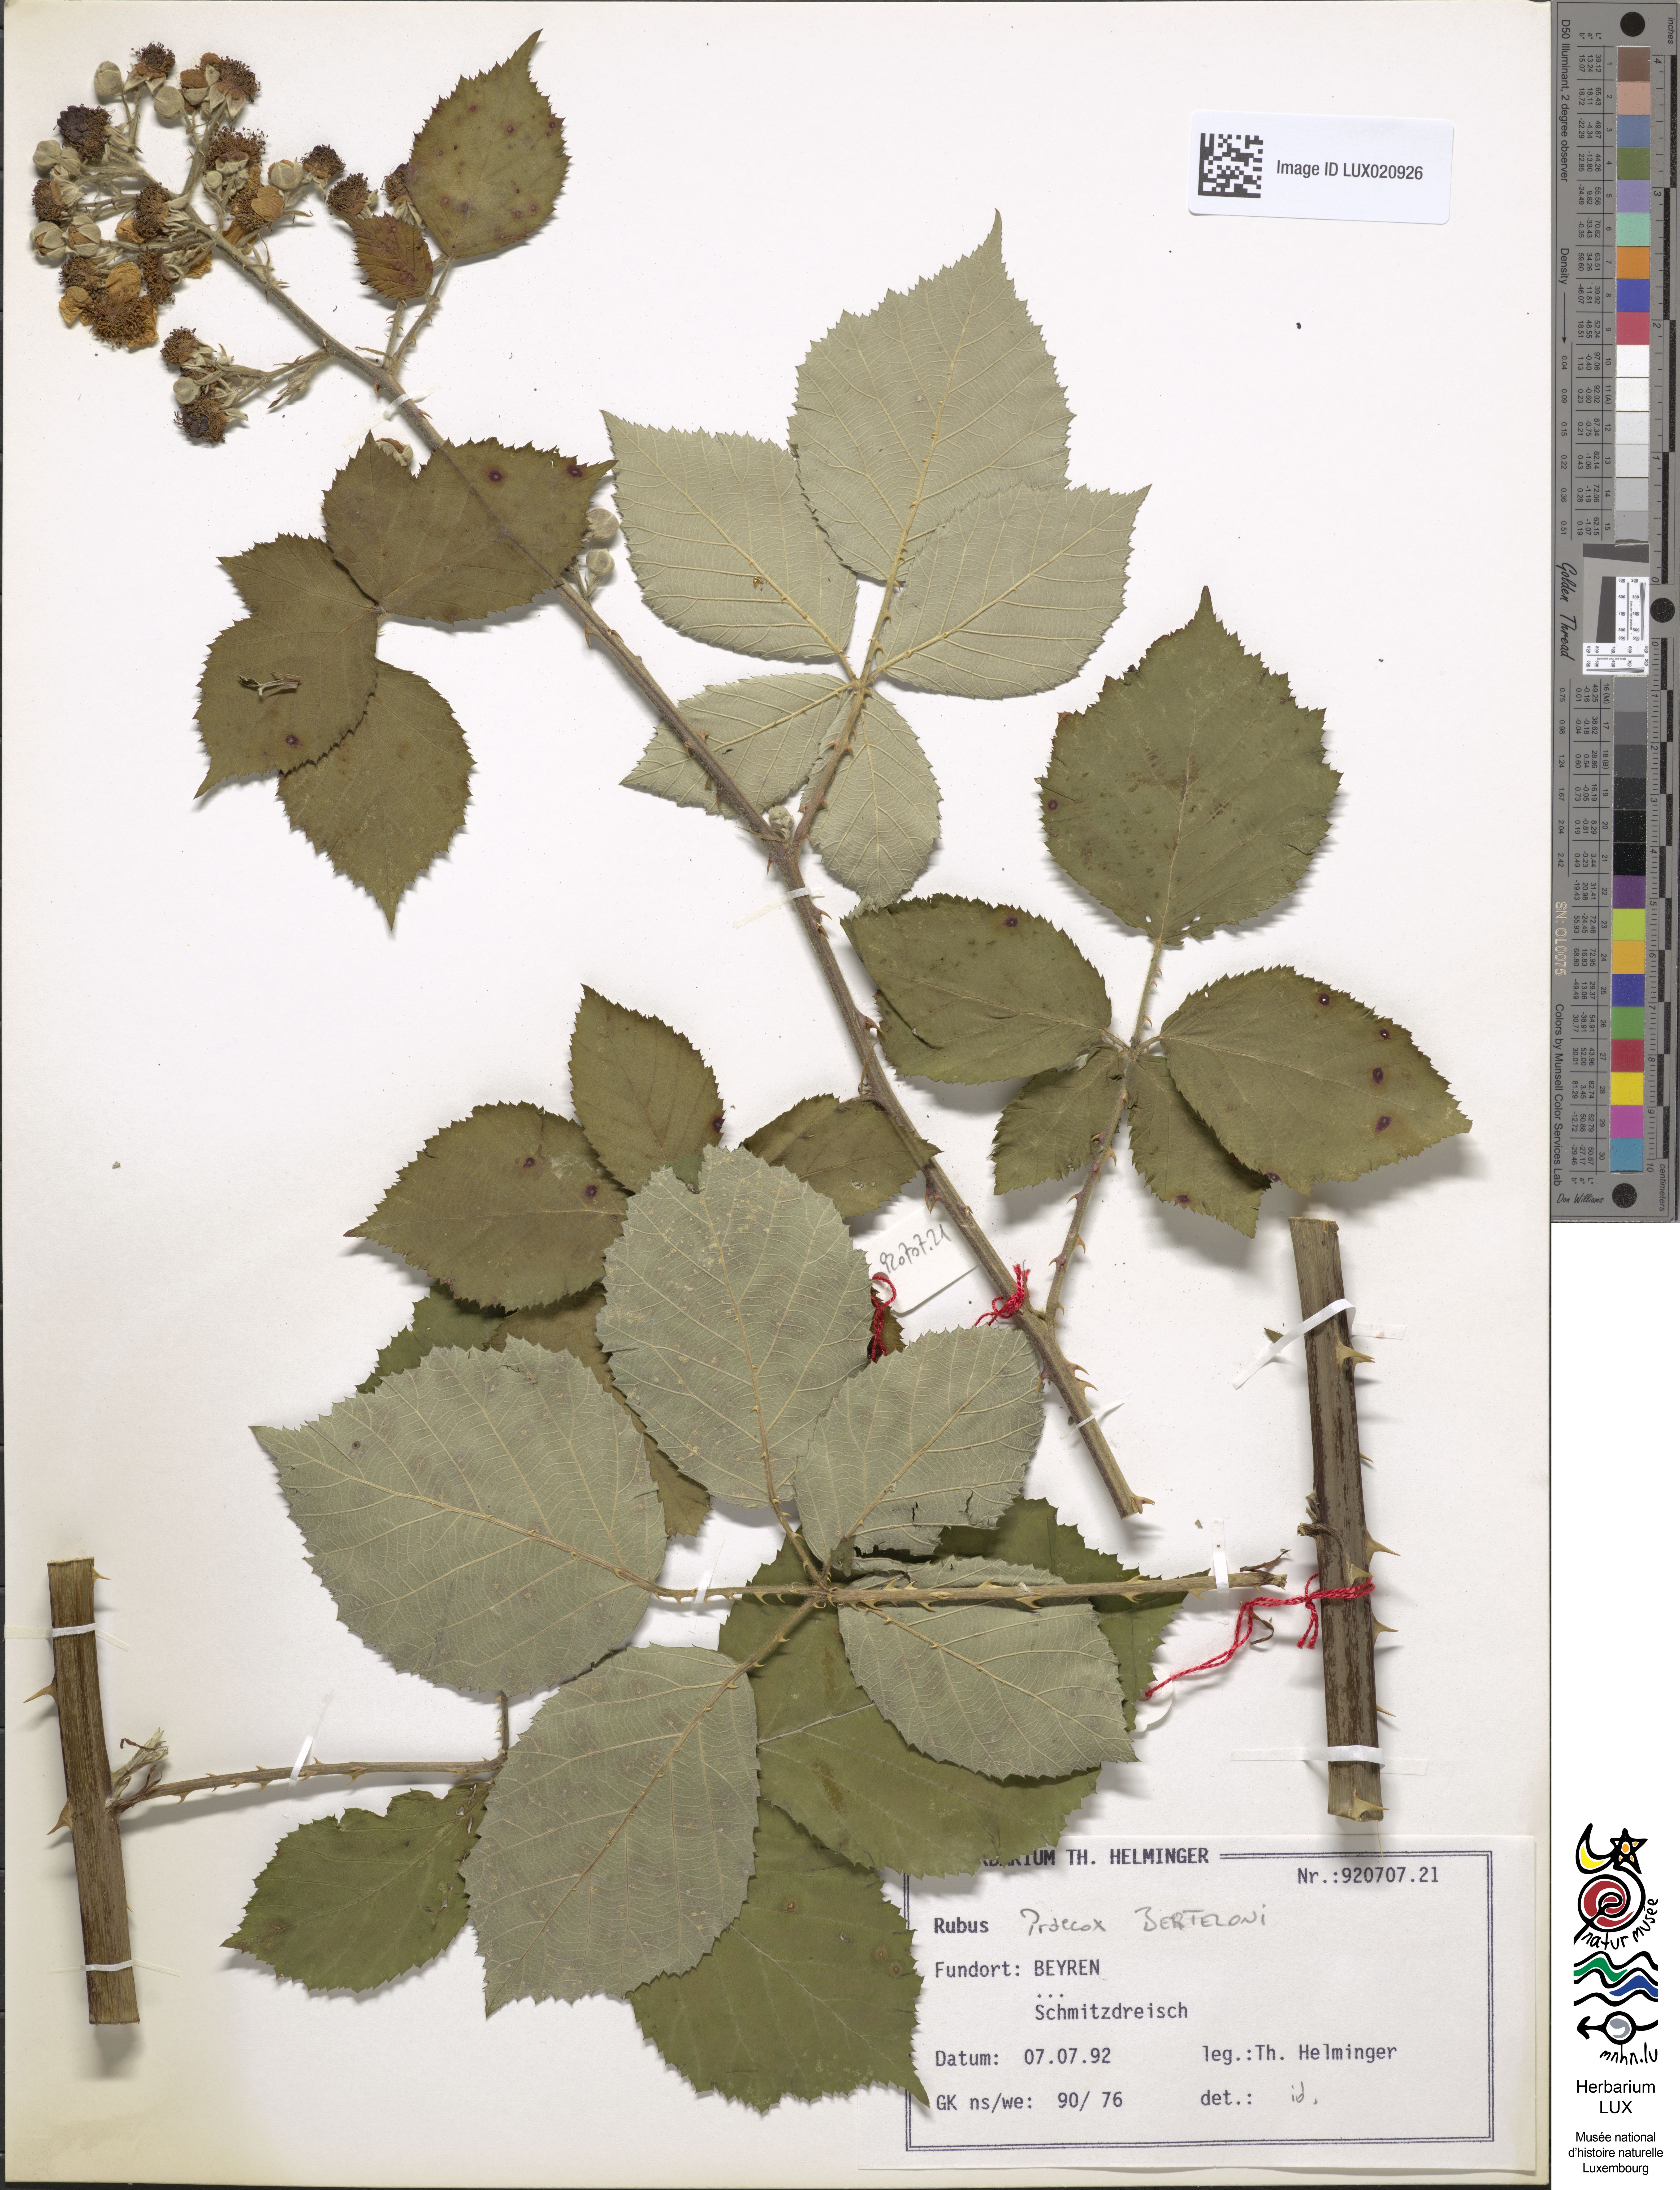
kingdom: Plantae
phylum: Tracheophyta
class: Magnoliopsida
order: Rosales
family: Rosaceae
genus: Rubus
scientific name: Rubus praecox
